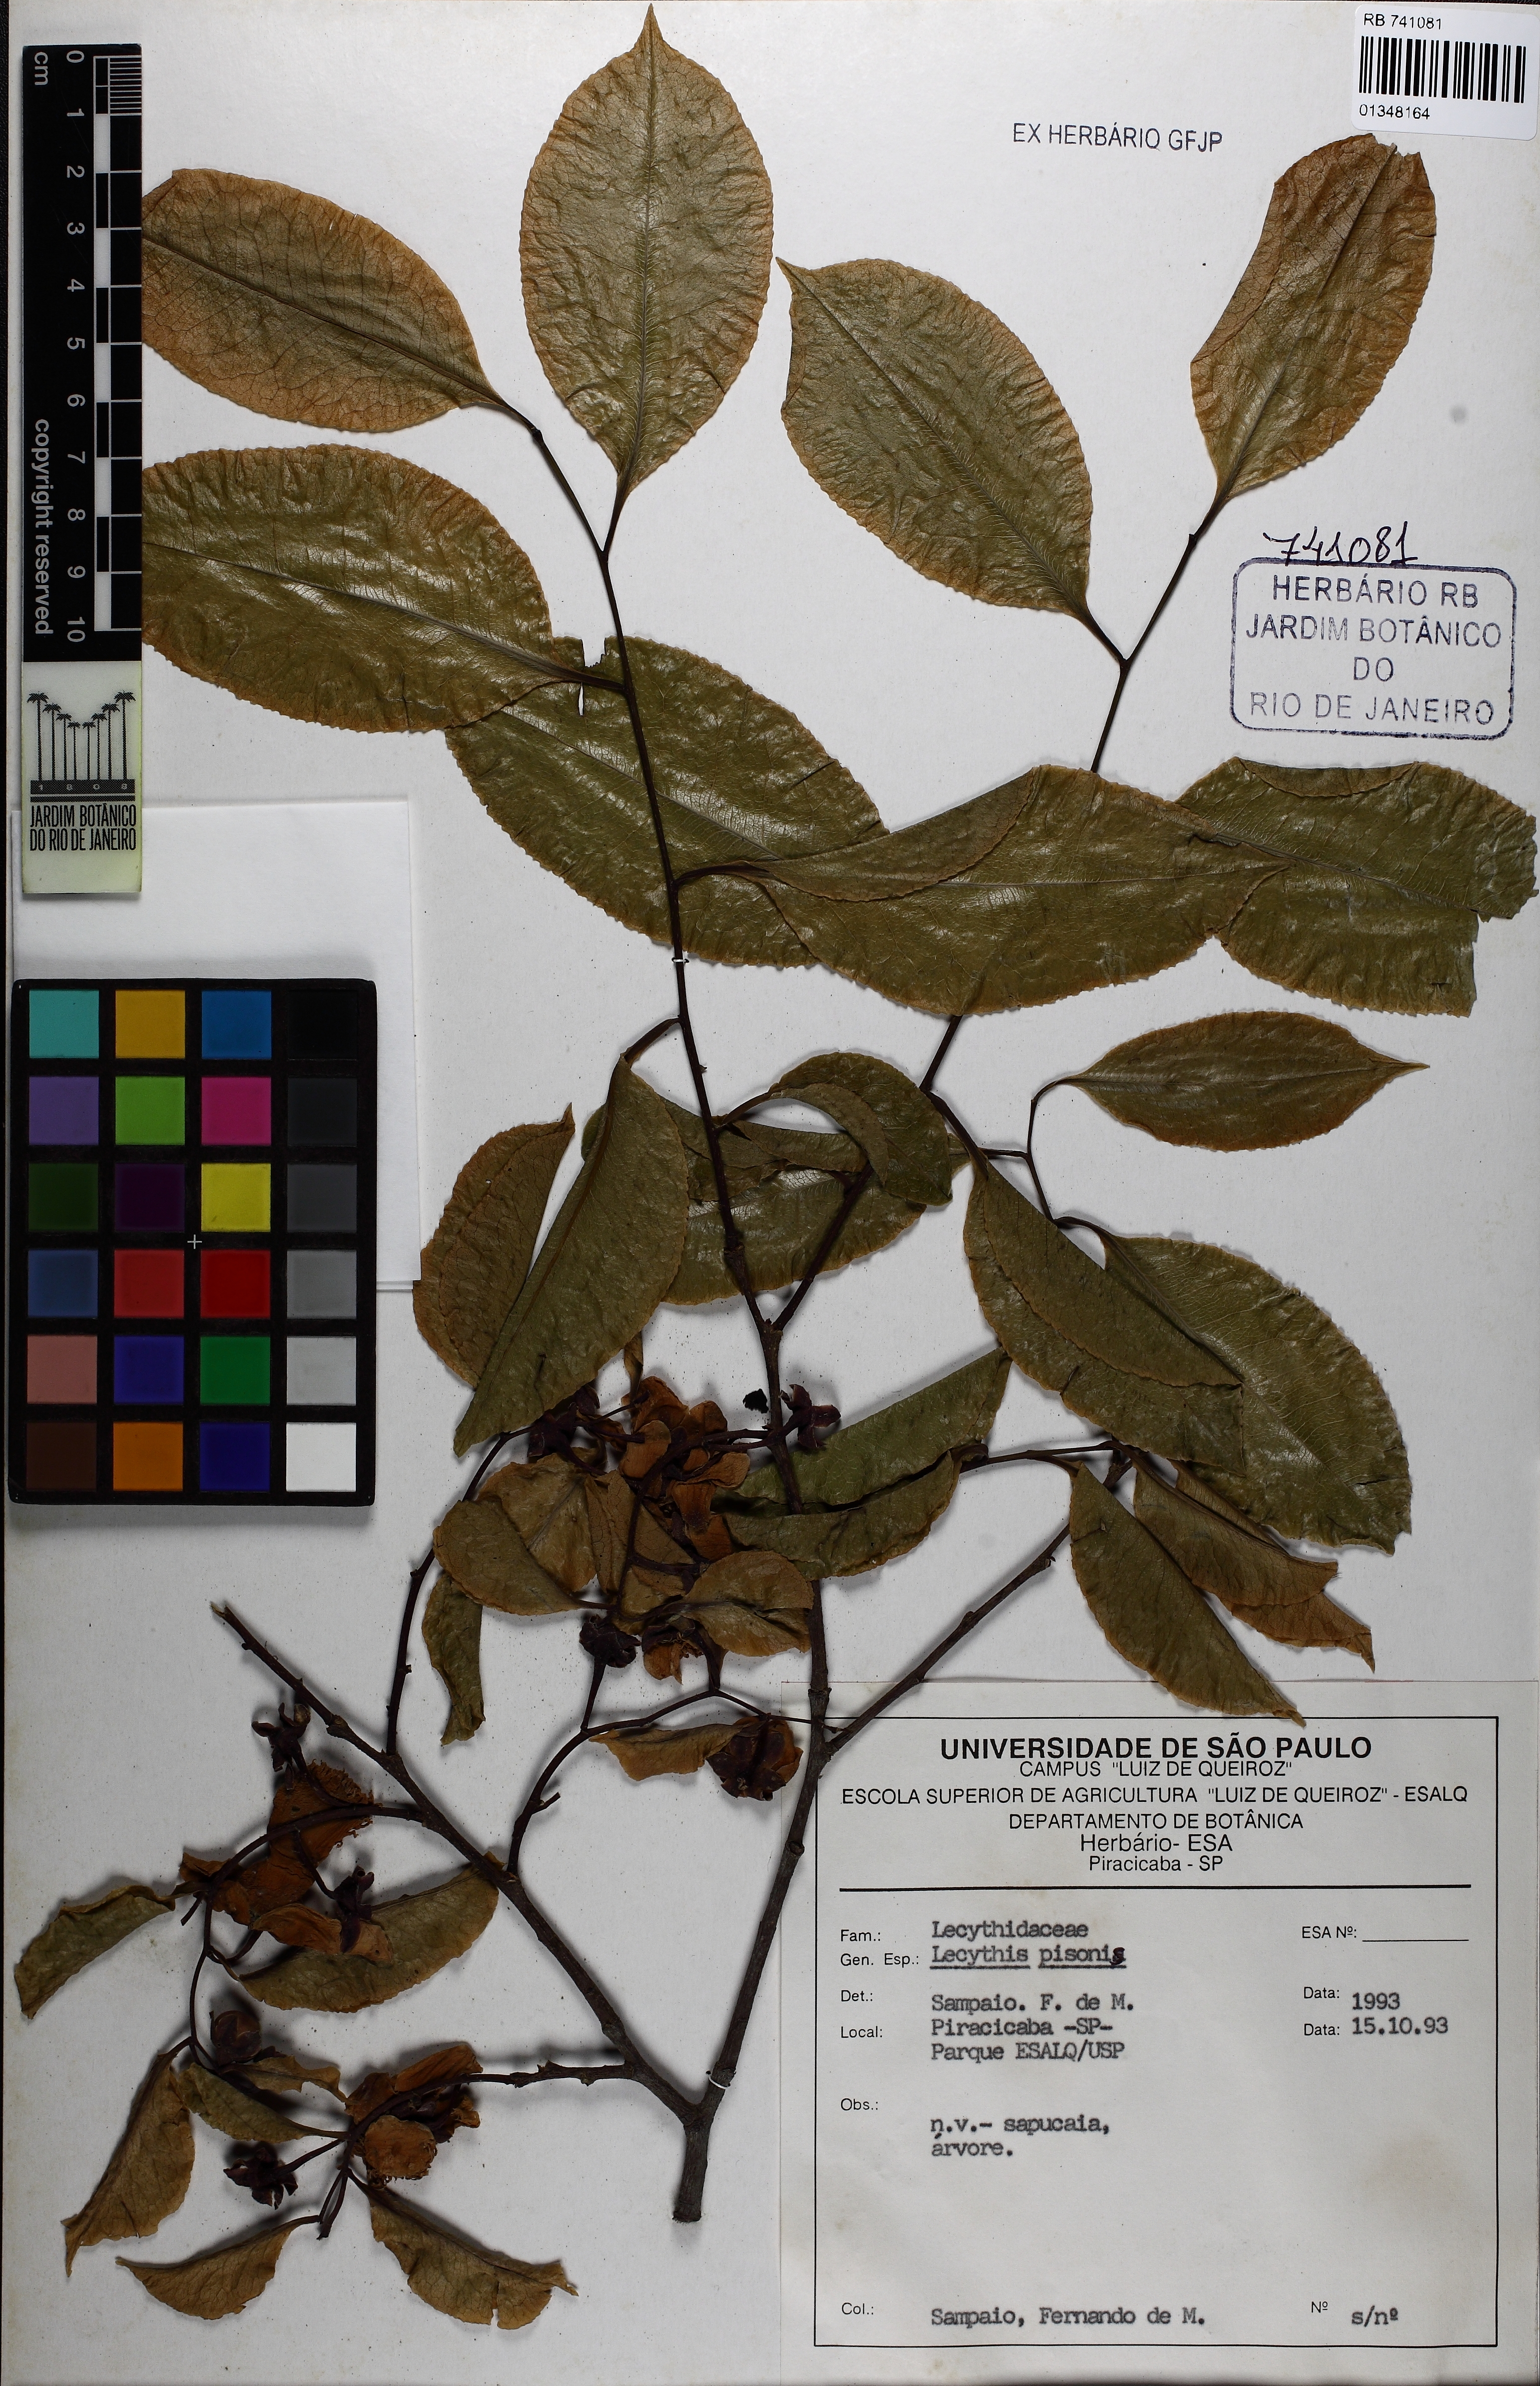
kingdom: Plantae
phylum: Tracheophyta
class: Magnoliopsida
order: Ericales
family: Lecythidaceae
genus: Lecythis
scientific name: Lecythis pisonis
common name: Paradise-nut
